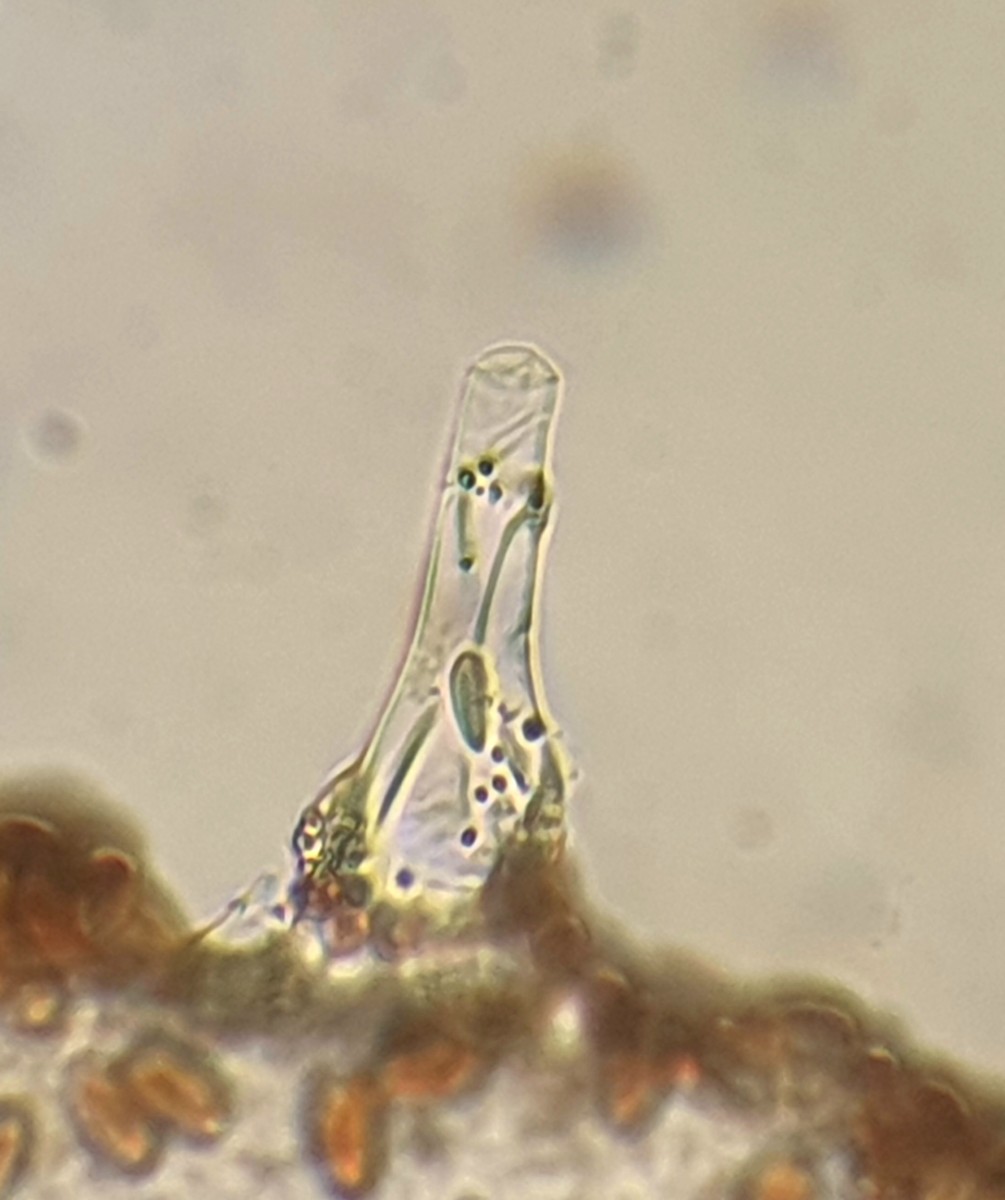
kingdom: Fungi
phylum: Basidiomycota
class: Agaricomycetes
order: Agaricales
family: Psathyrellaceae
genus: Psathyrella
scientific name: Psathyrella
